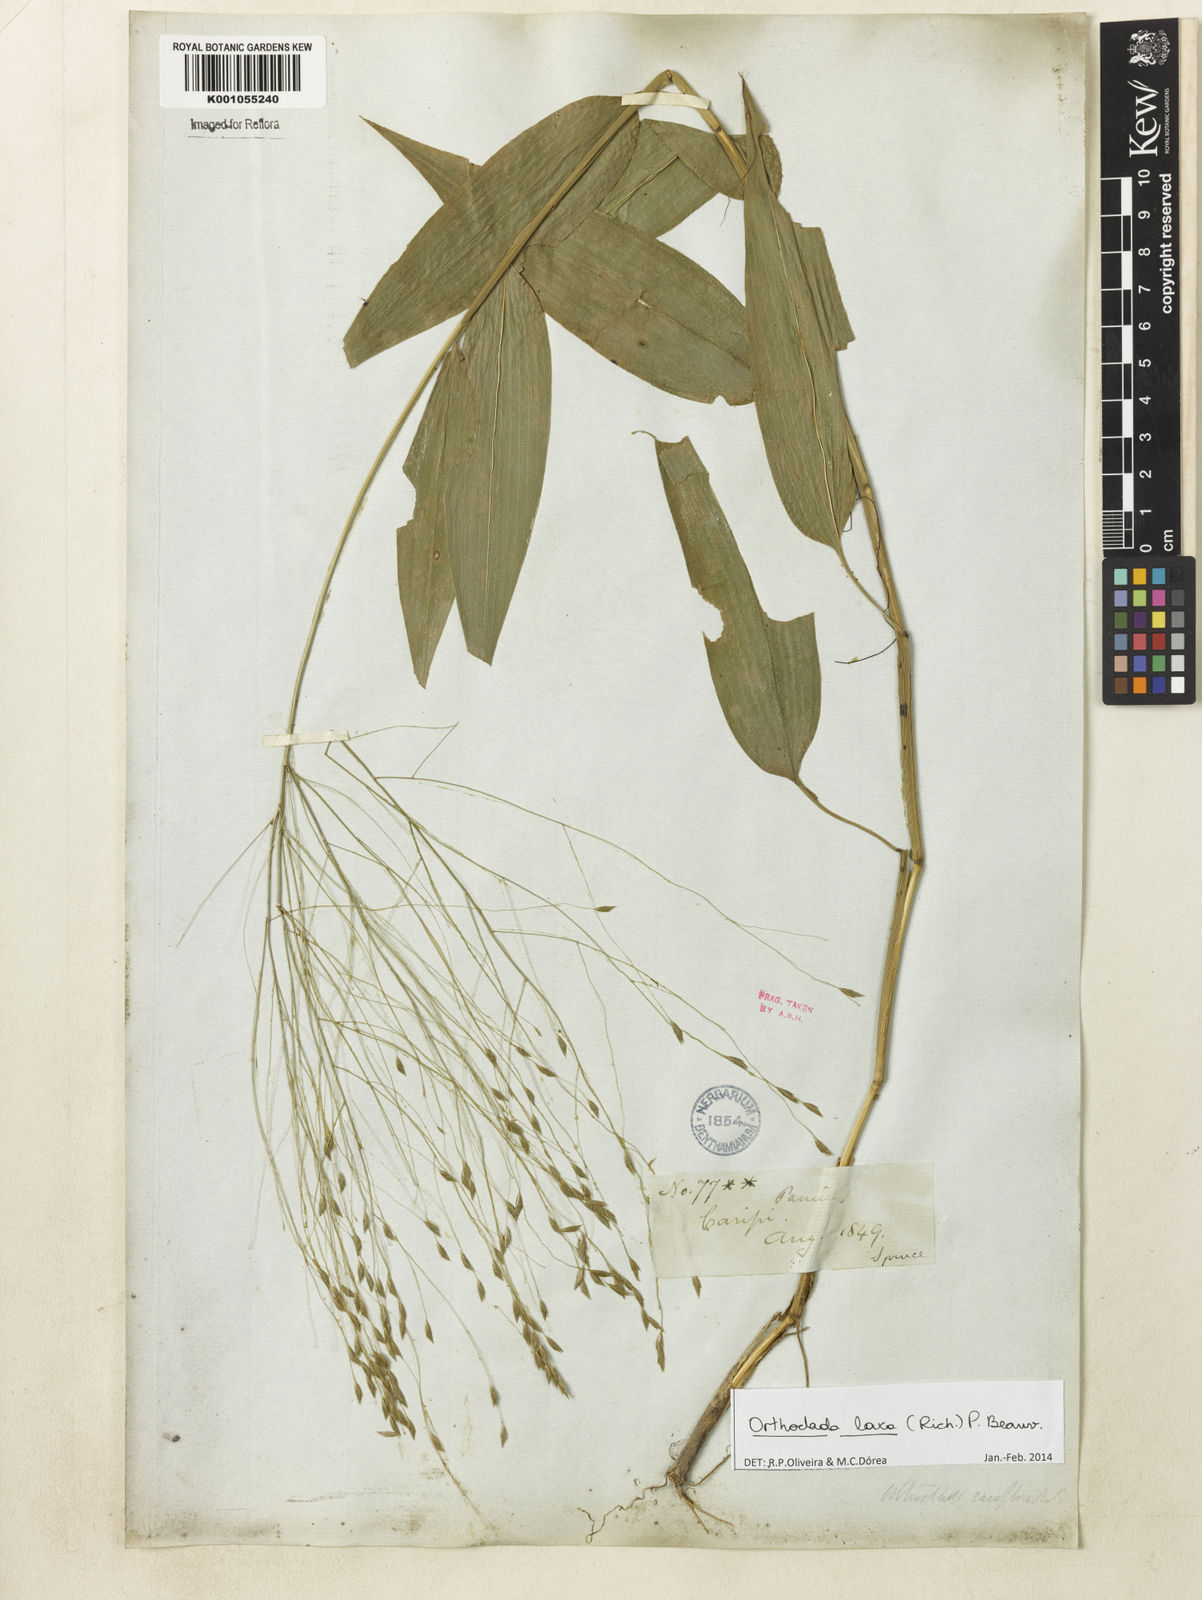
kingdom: Plantae
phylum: Tracheophyta
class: Liliopsida
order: Poales
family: Poaceae
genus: Orthoclada
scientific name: Orthoclada laxa
